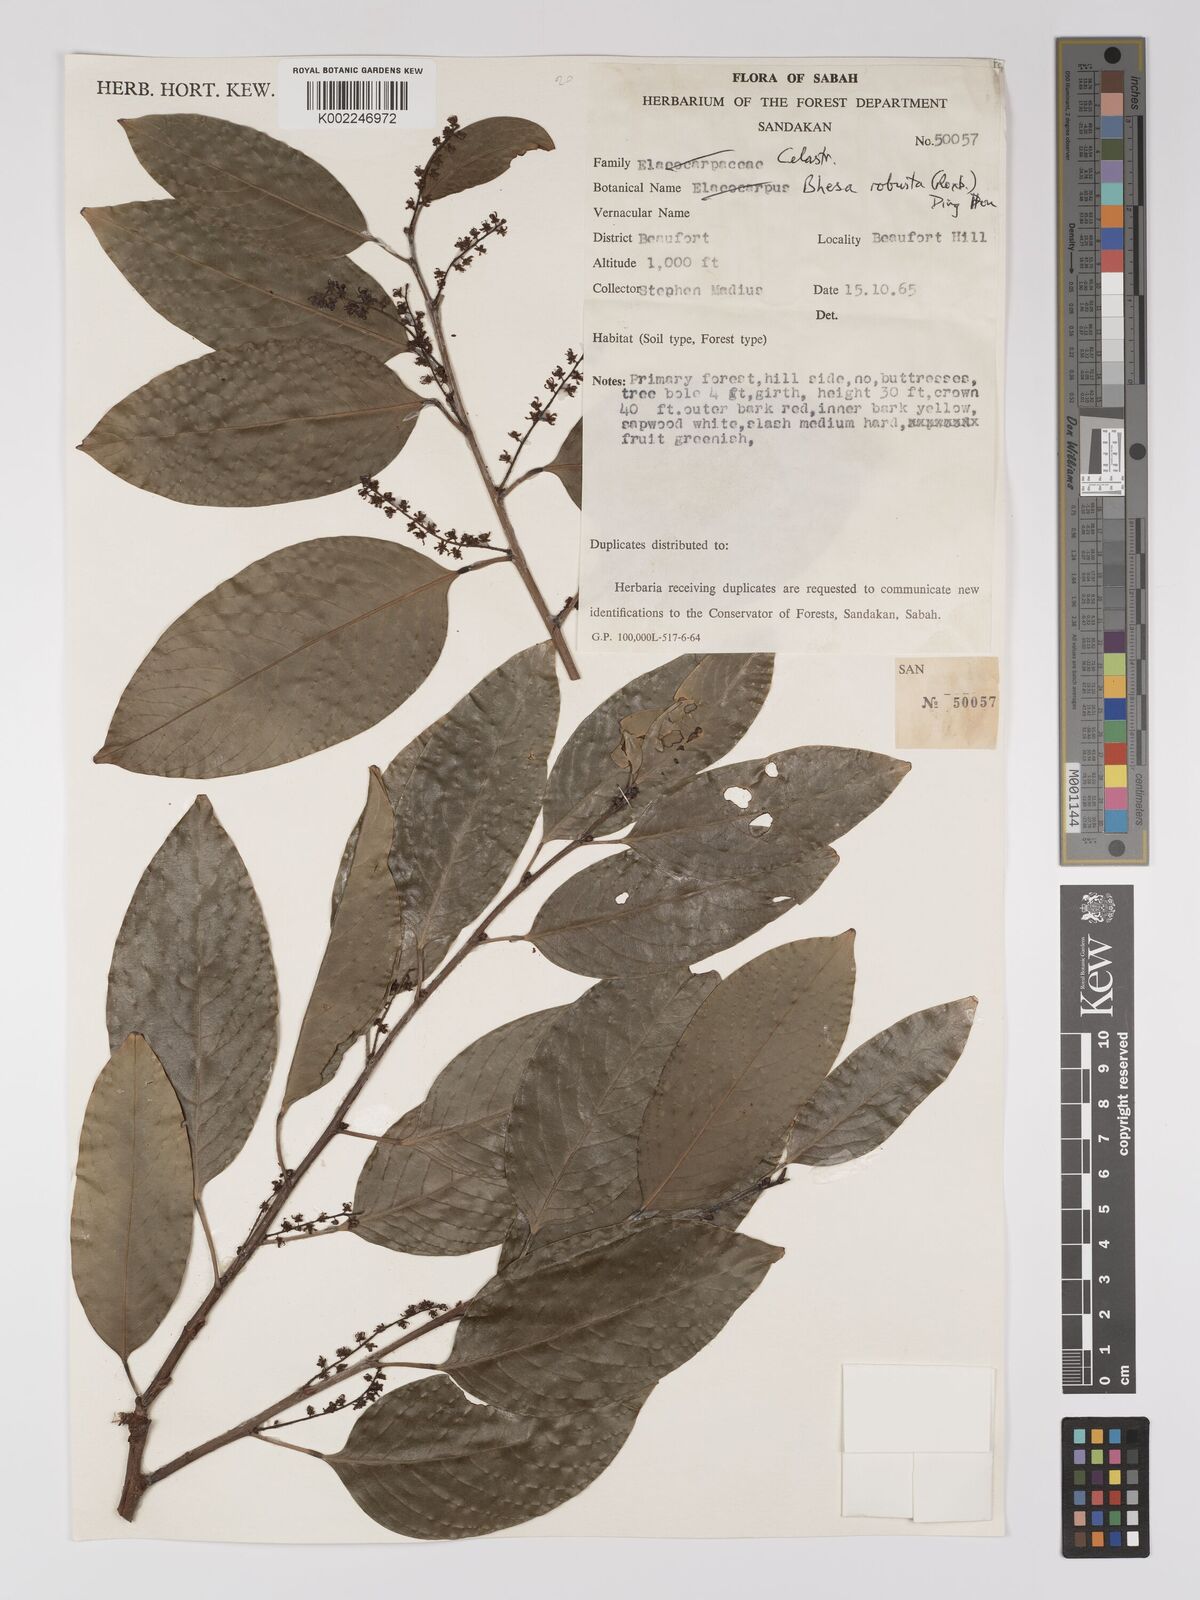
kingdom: Plantae
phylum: Tracheophyta
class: Magnoliopsida
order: Malpighiales
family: Centroplacaceae
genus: Bhesa
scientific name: Bhesa robusta
